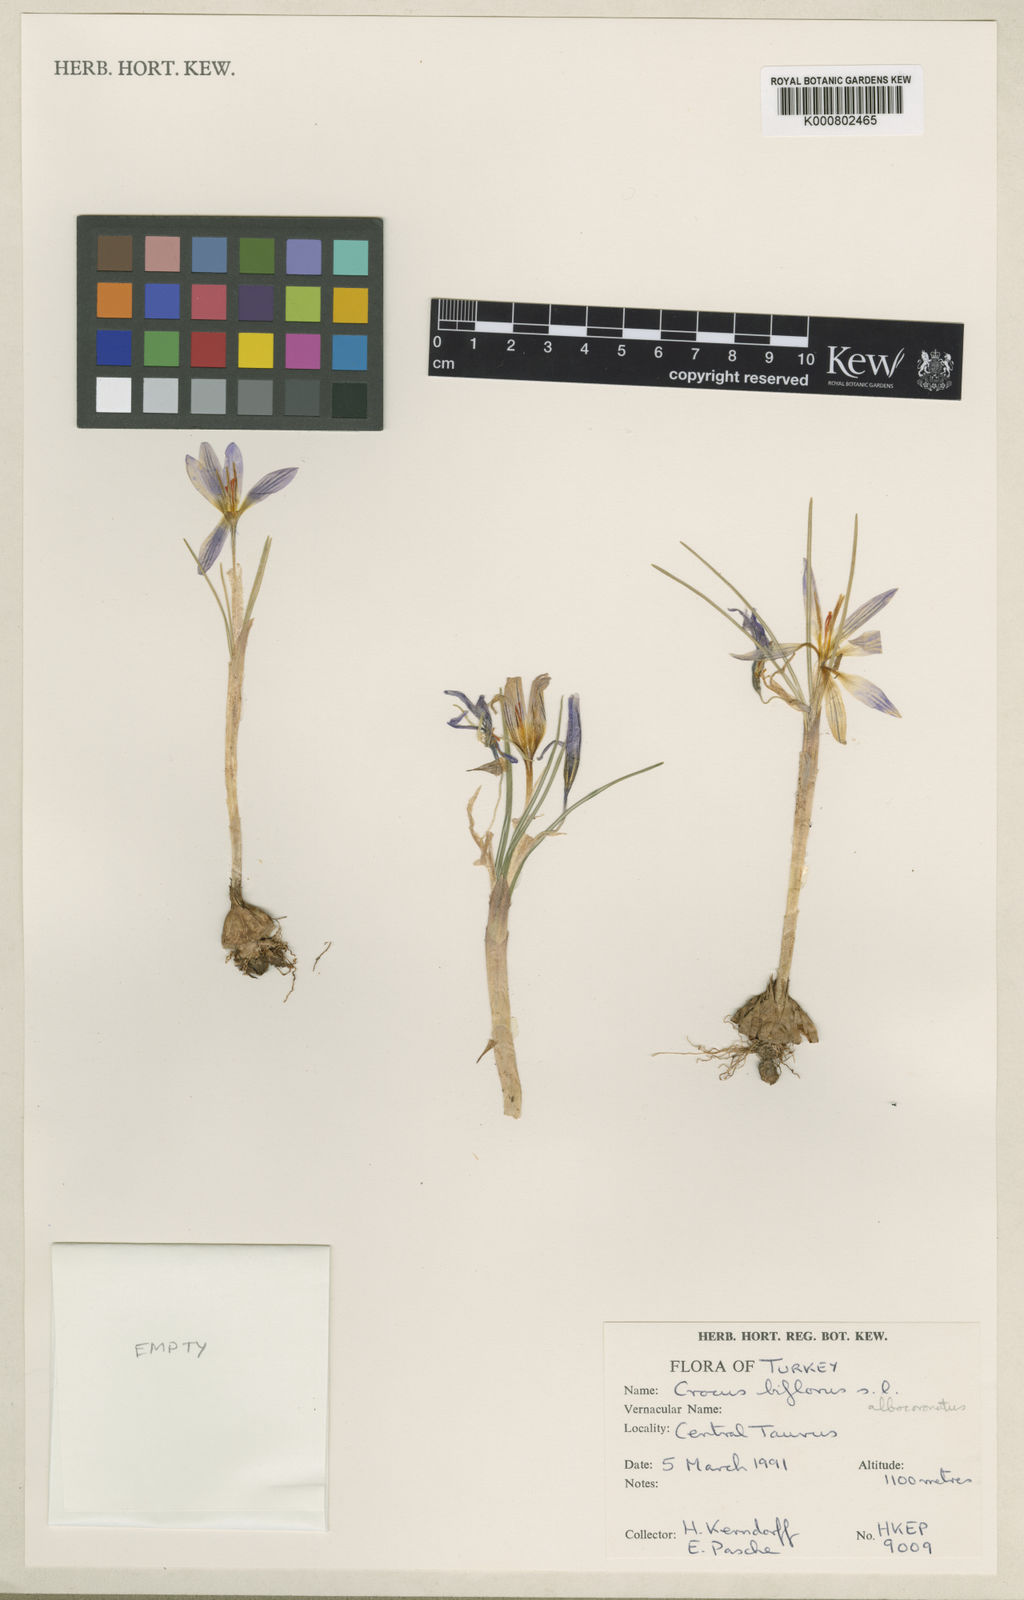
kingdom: Plantae
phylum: Tracheophyta
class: Liliopsida
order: Asparagales
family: Iridaceae
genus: Crocus
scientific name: Crocus albocoronatus
